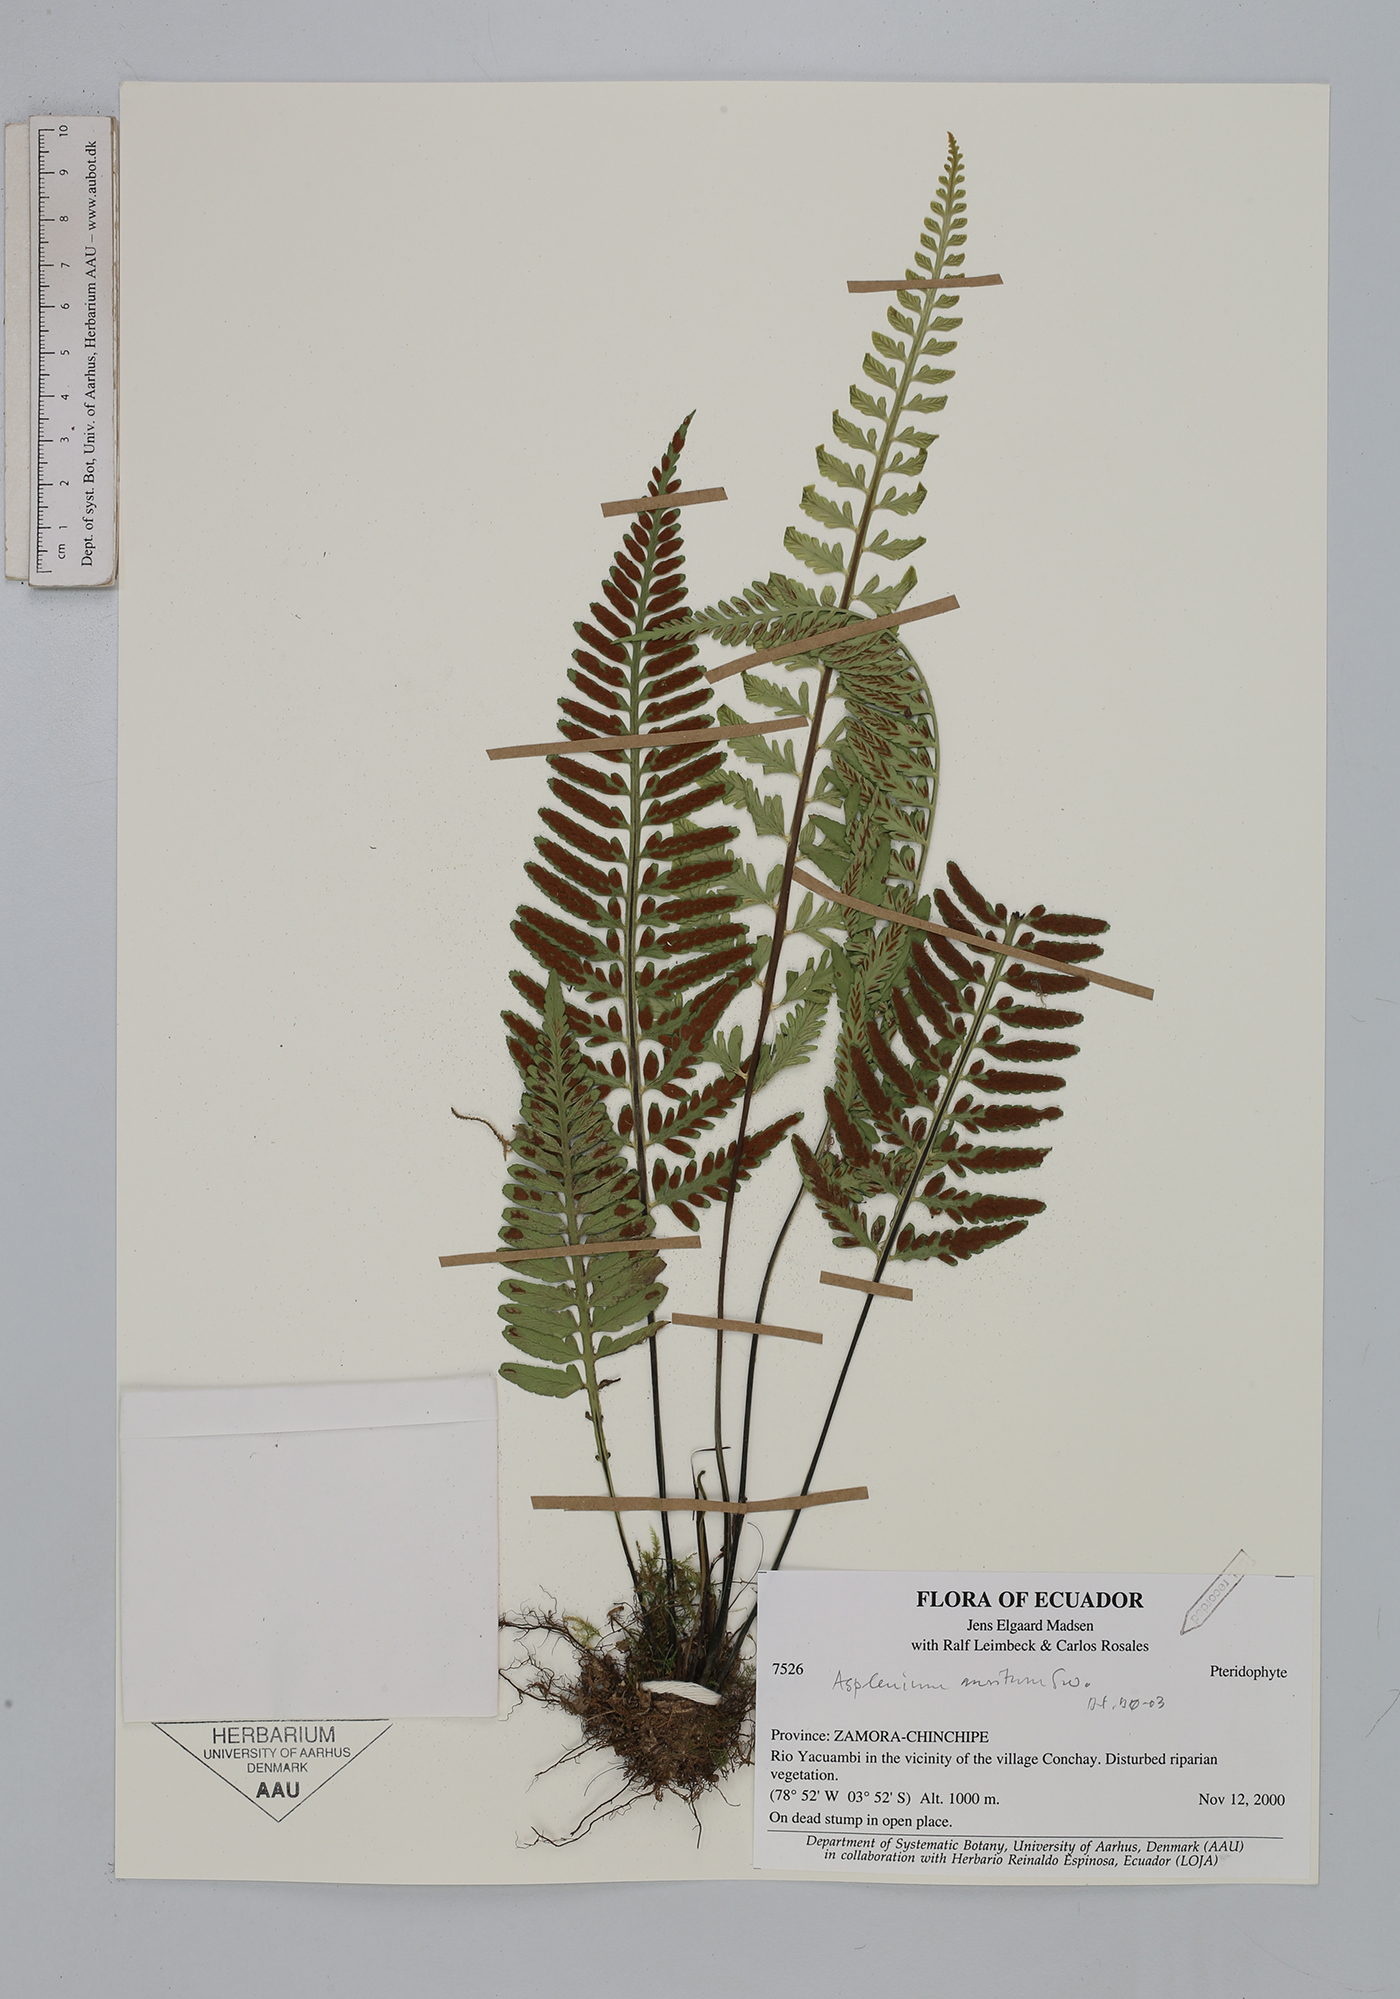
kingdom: Plantae
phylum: Tracheophyta
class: Polypodiopsida
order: Polypodiales
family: Aspleniaceae
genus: Asplenium
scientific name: Asplenium auritum
